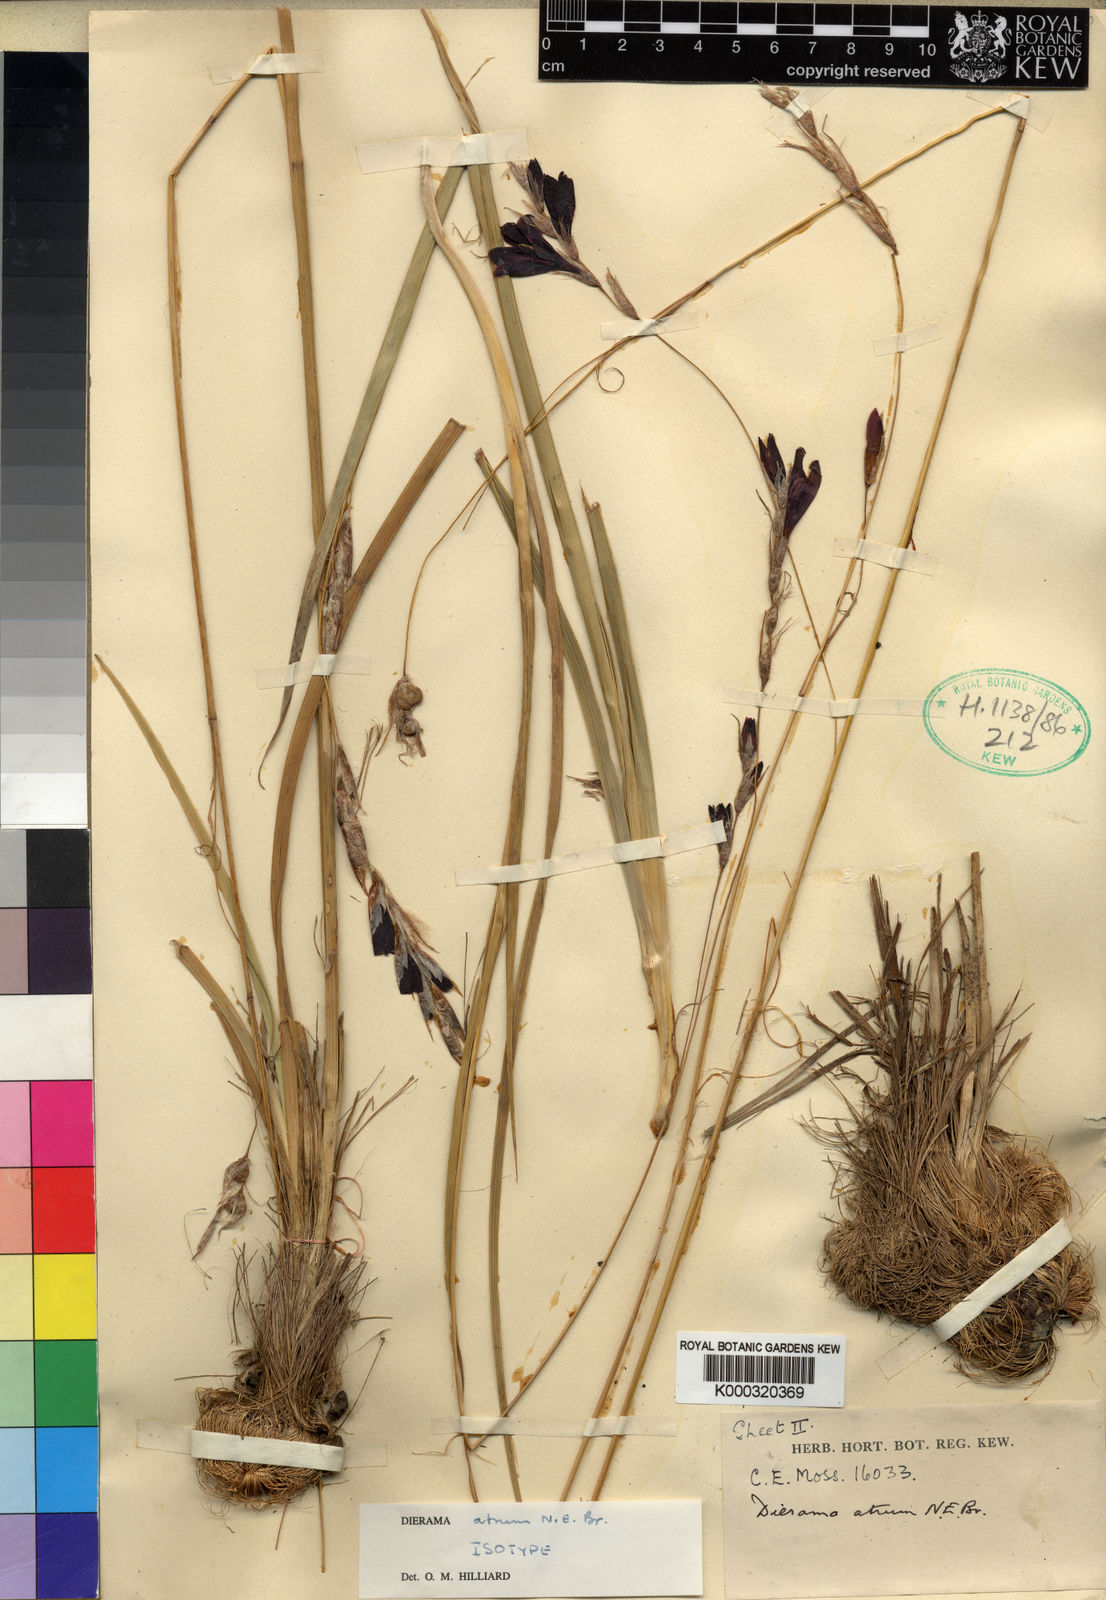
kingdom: Plantae
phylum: Tracheophyta
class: Liliopsida
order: Asparagales
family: Iridaceae
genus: Dierama
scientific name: Dierama atrum
